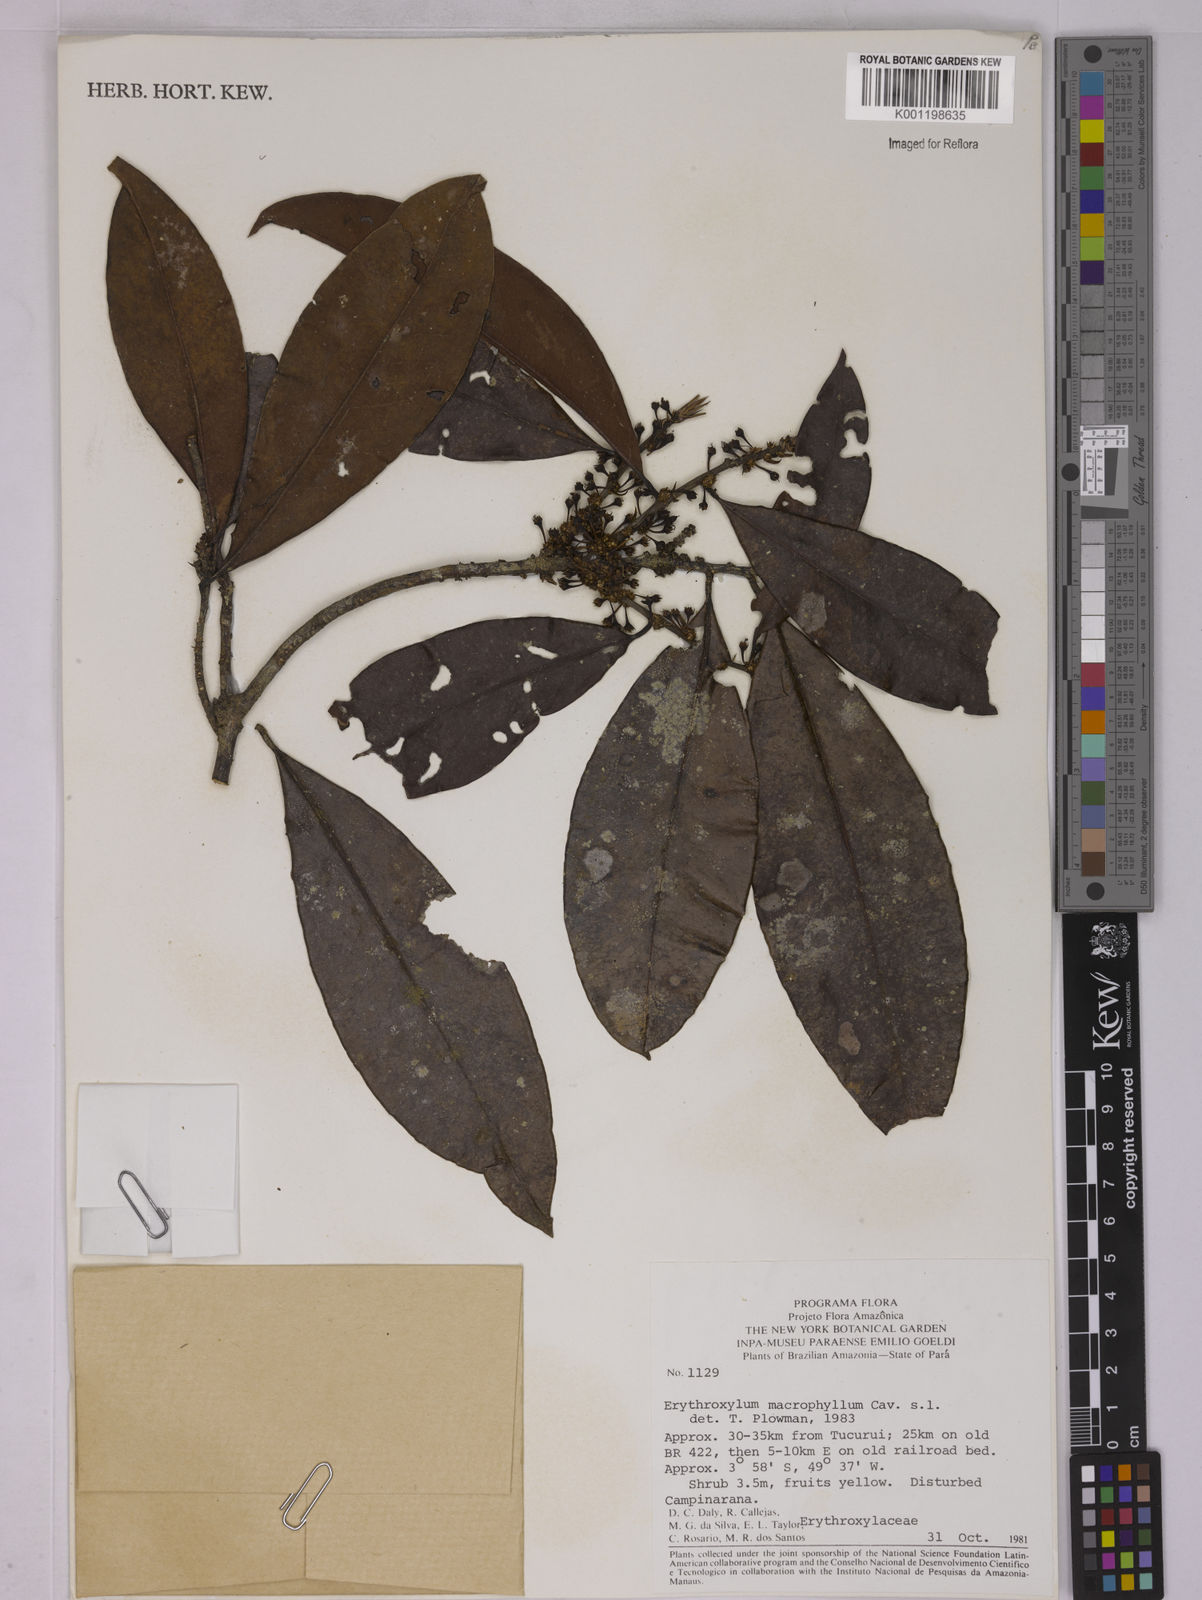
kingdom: Plantae
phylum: Tracheophyta
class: Magnoliopsida
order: Malpighiales
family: Erythroxylaceae
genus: Erythroxylum
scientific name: Erythroxylum macrophyllum
